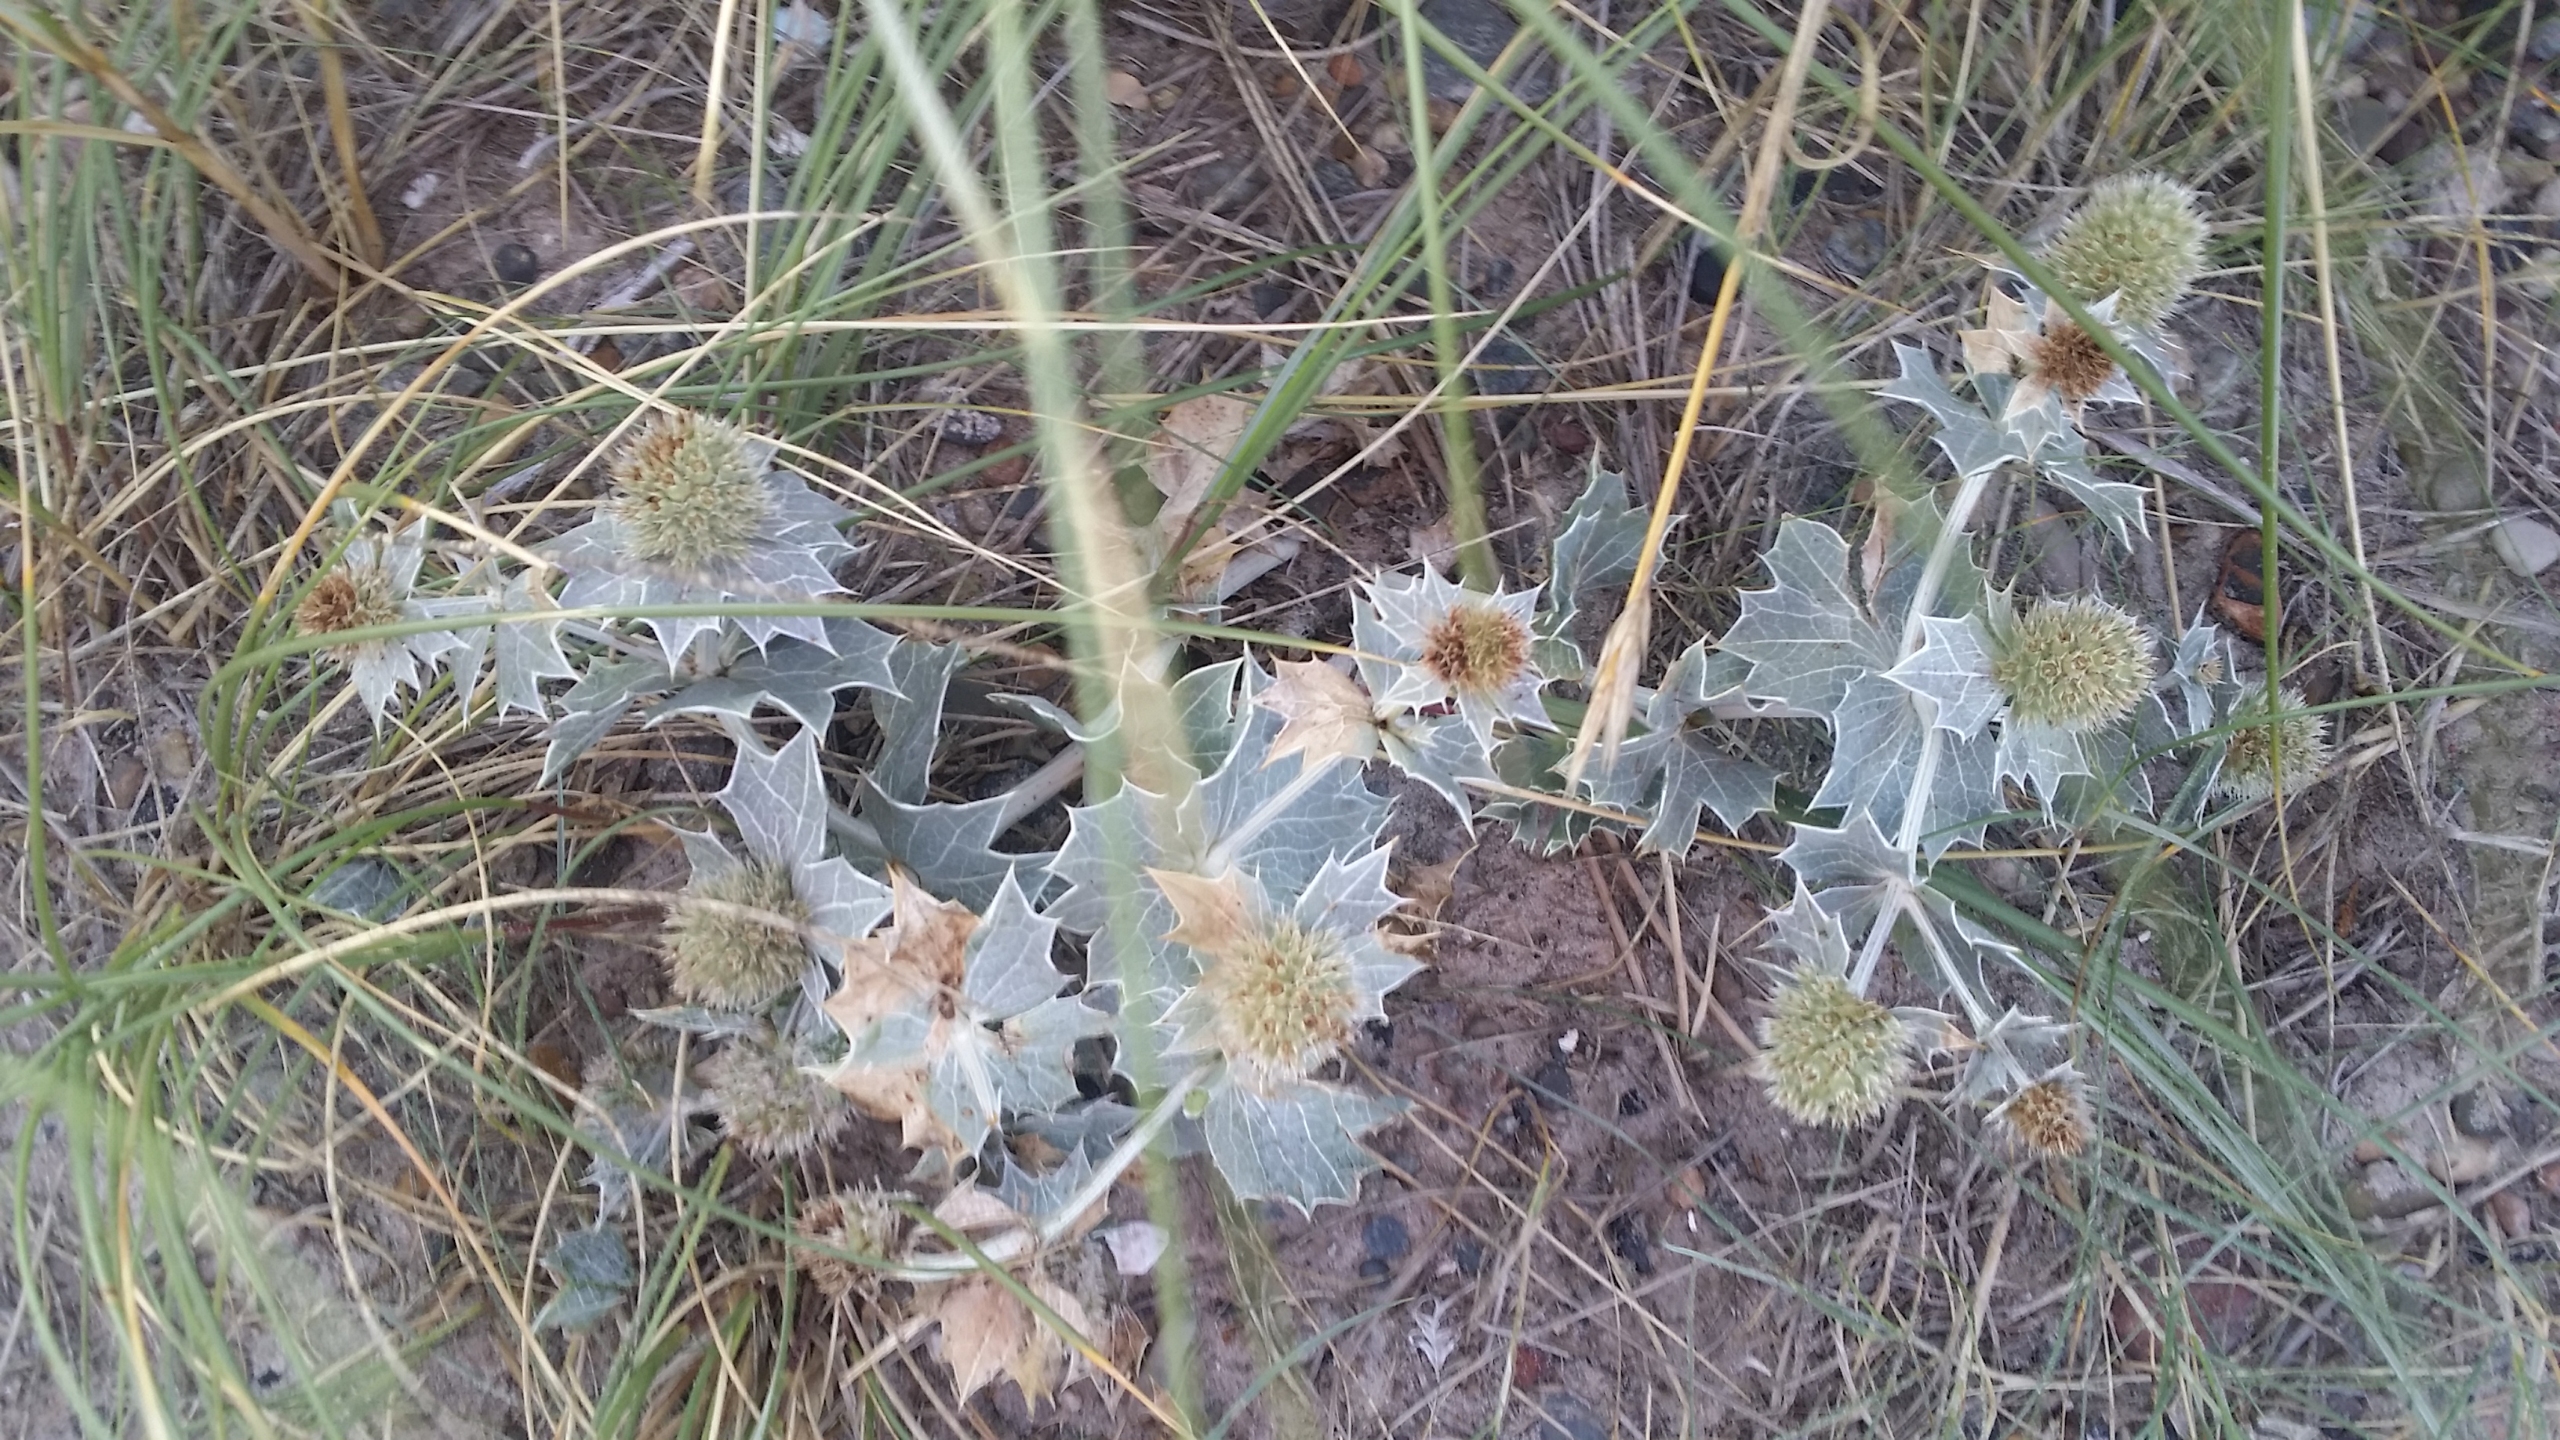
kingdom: Plantae
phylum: Tracheophyta
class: Magnoliopsida
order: Apiales
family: Apiaceae
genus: Eryngium
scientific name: Eryngium maritimum
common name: Strand-mandstro
